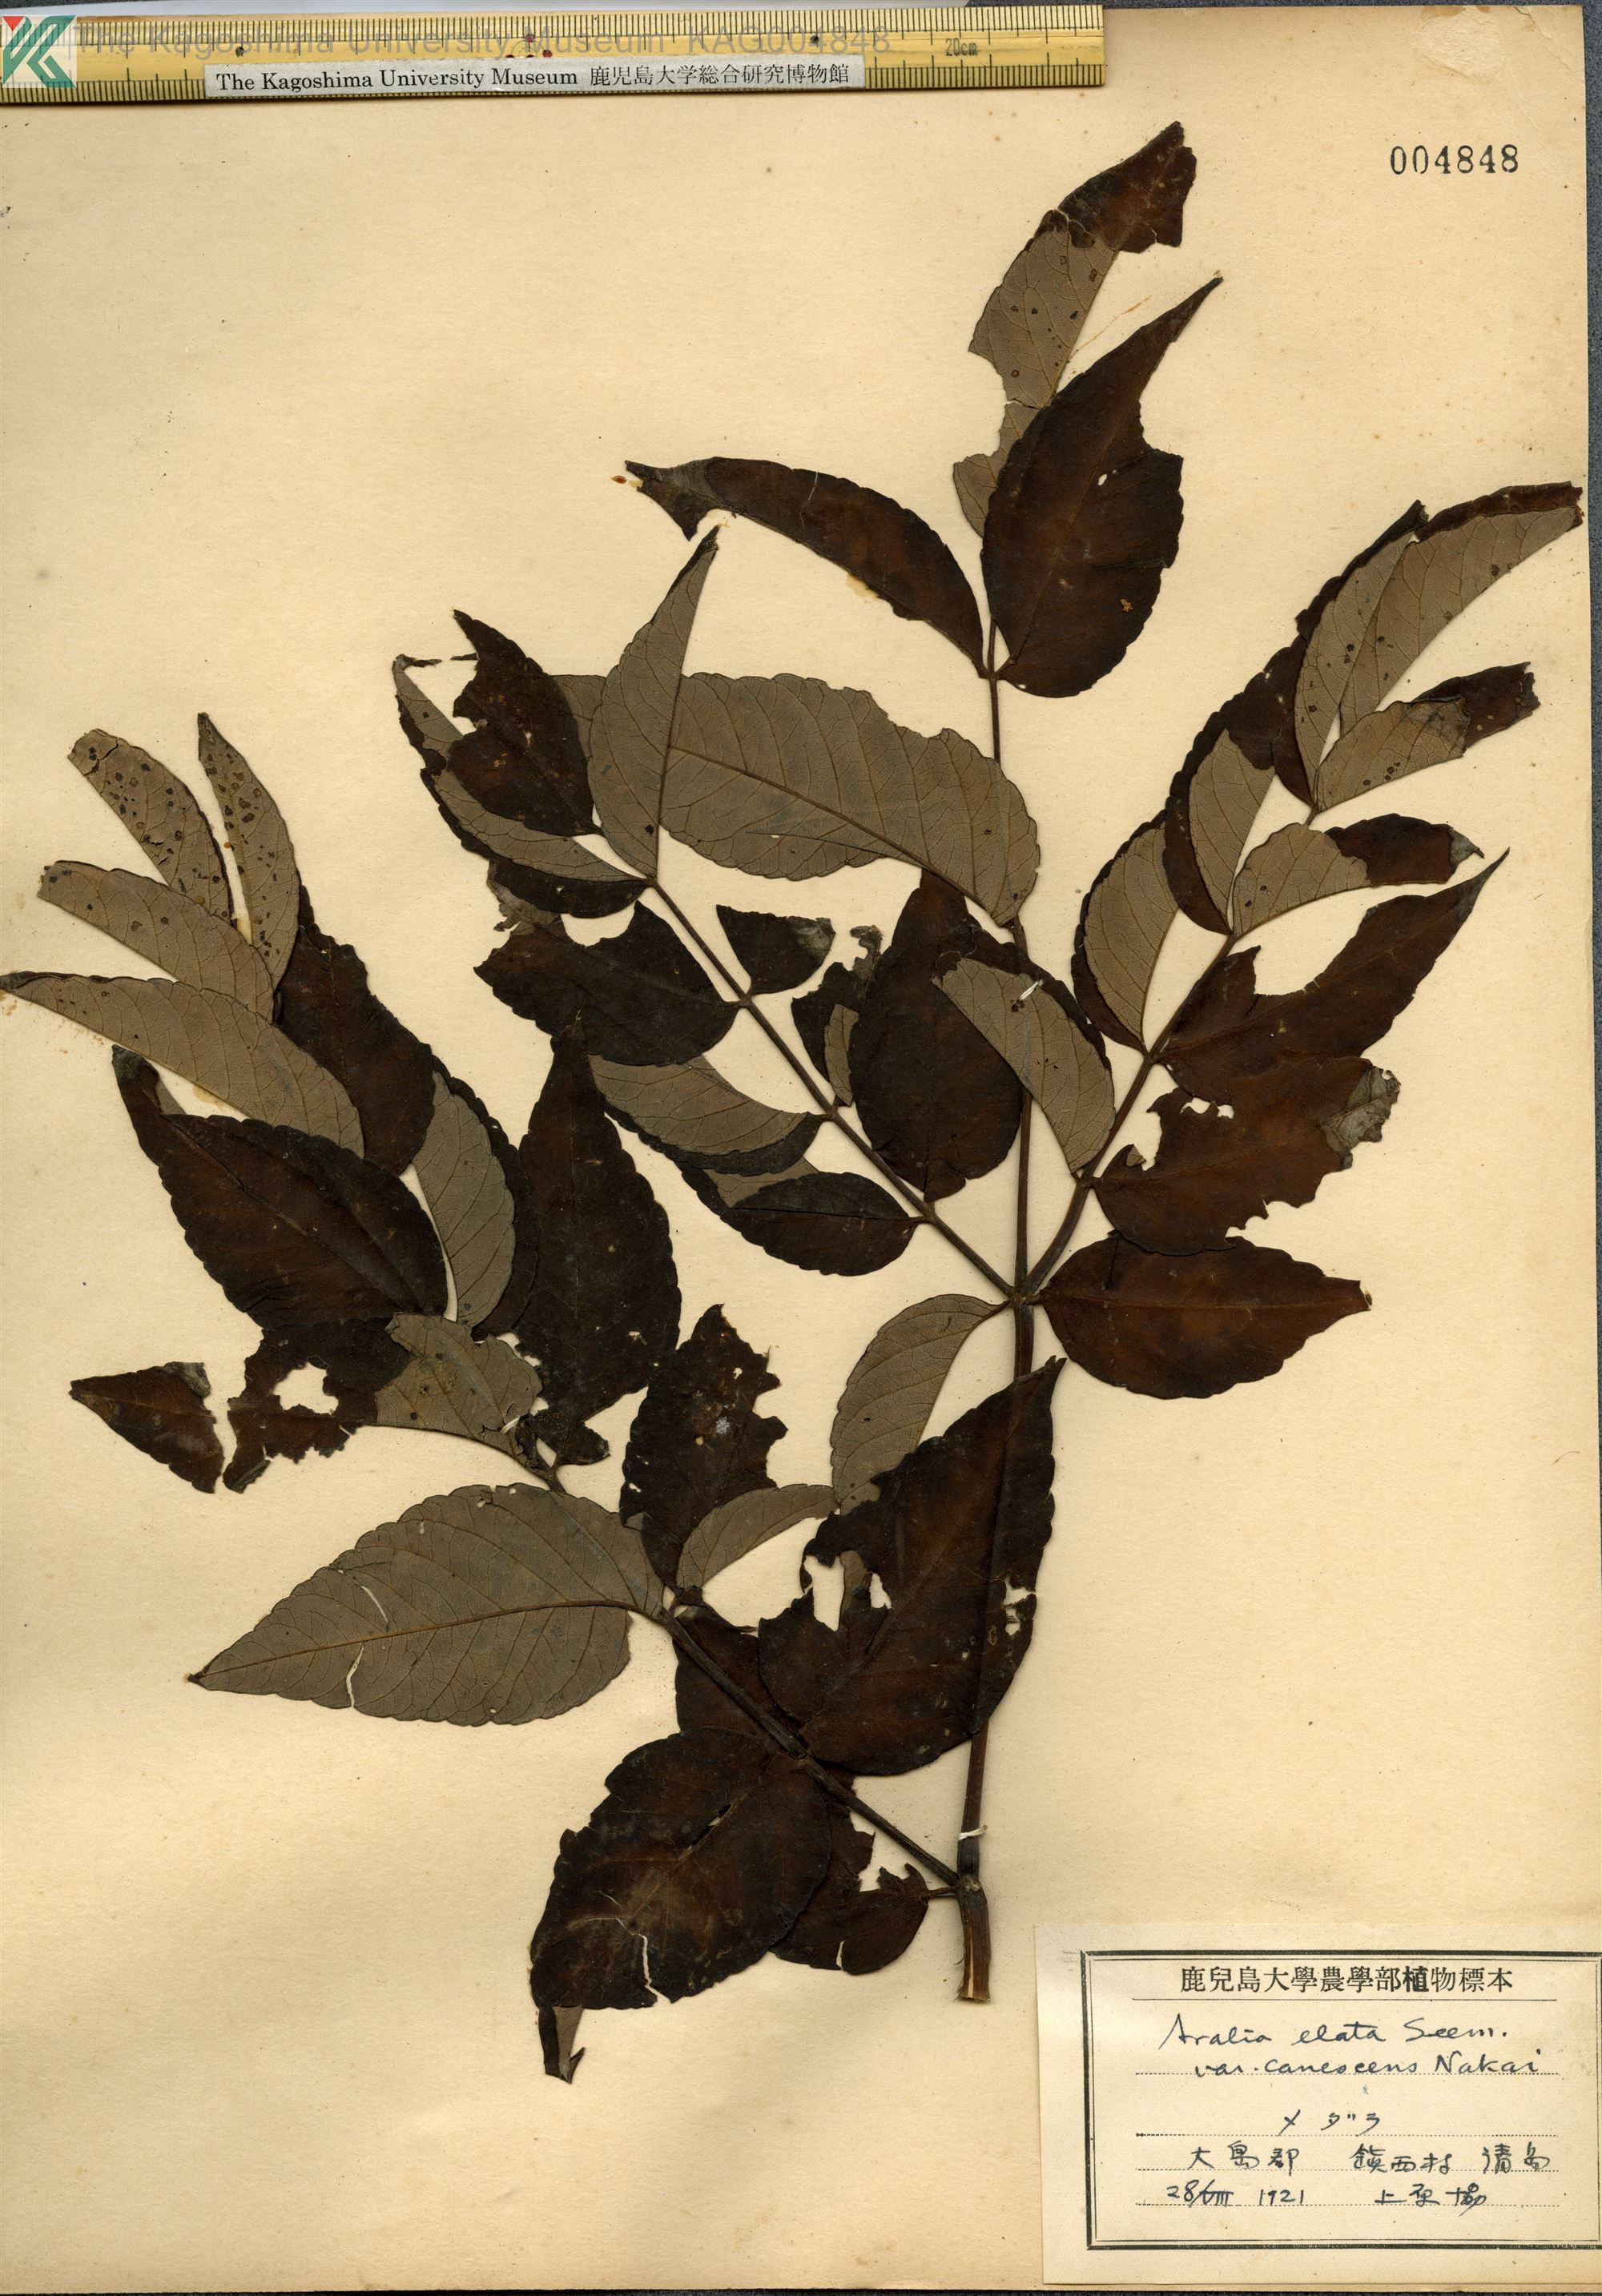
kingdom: Plantae
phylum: Tracheophyta
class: Magnoliopsida
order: Apiales
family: Araliaceae
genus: Aralia
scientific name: Aralia elata
